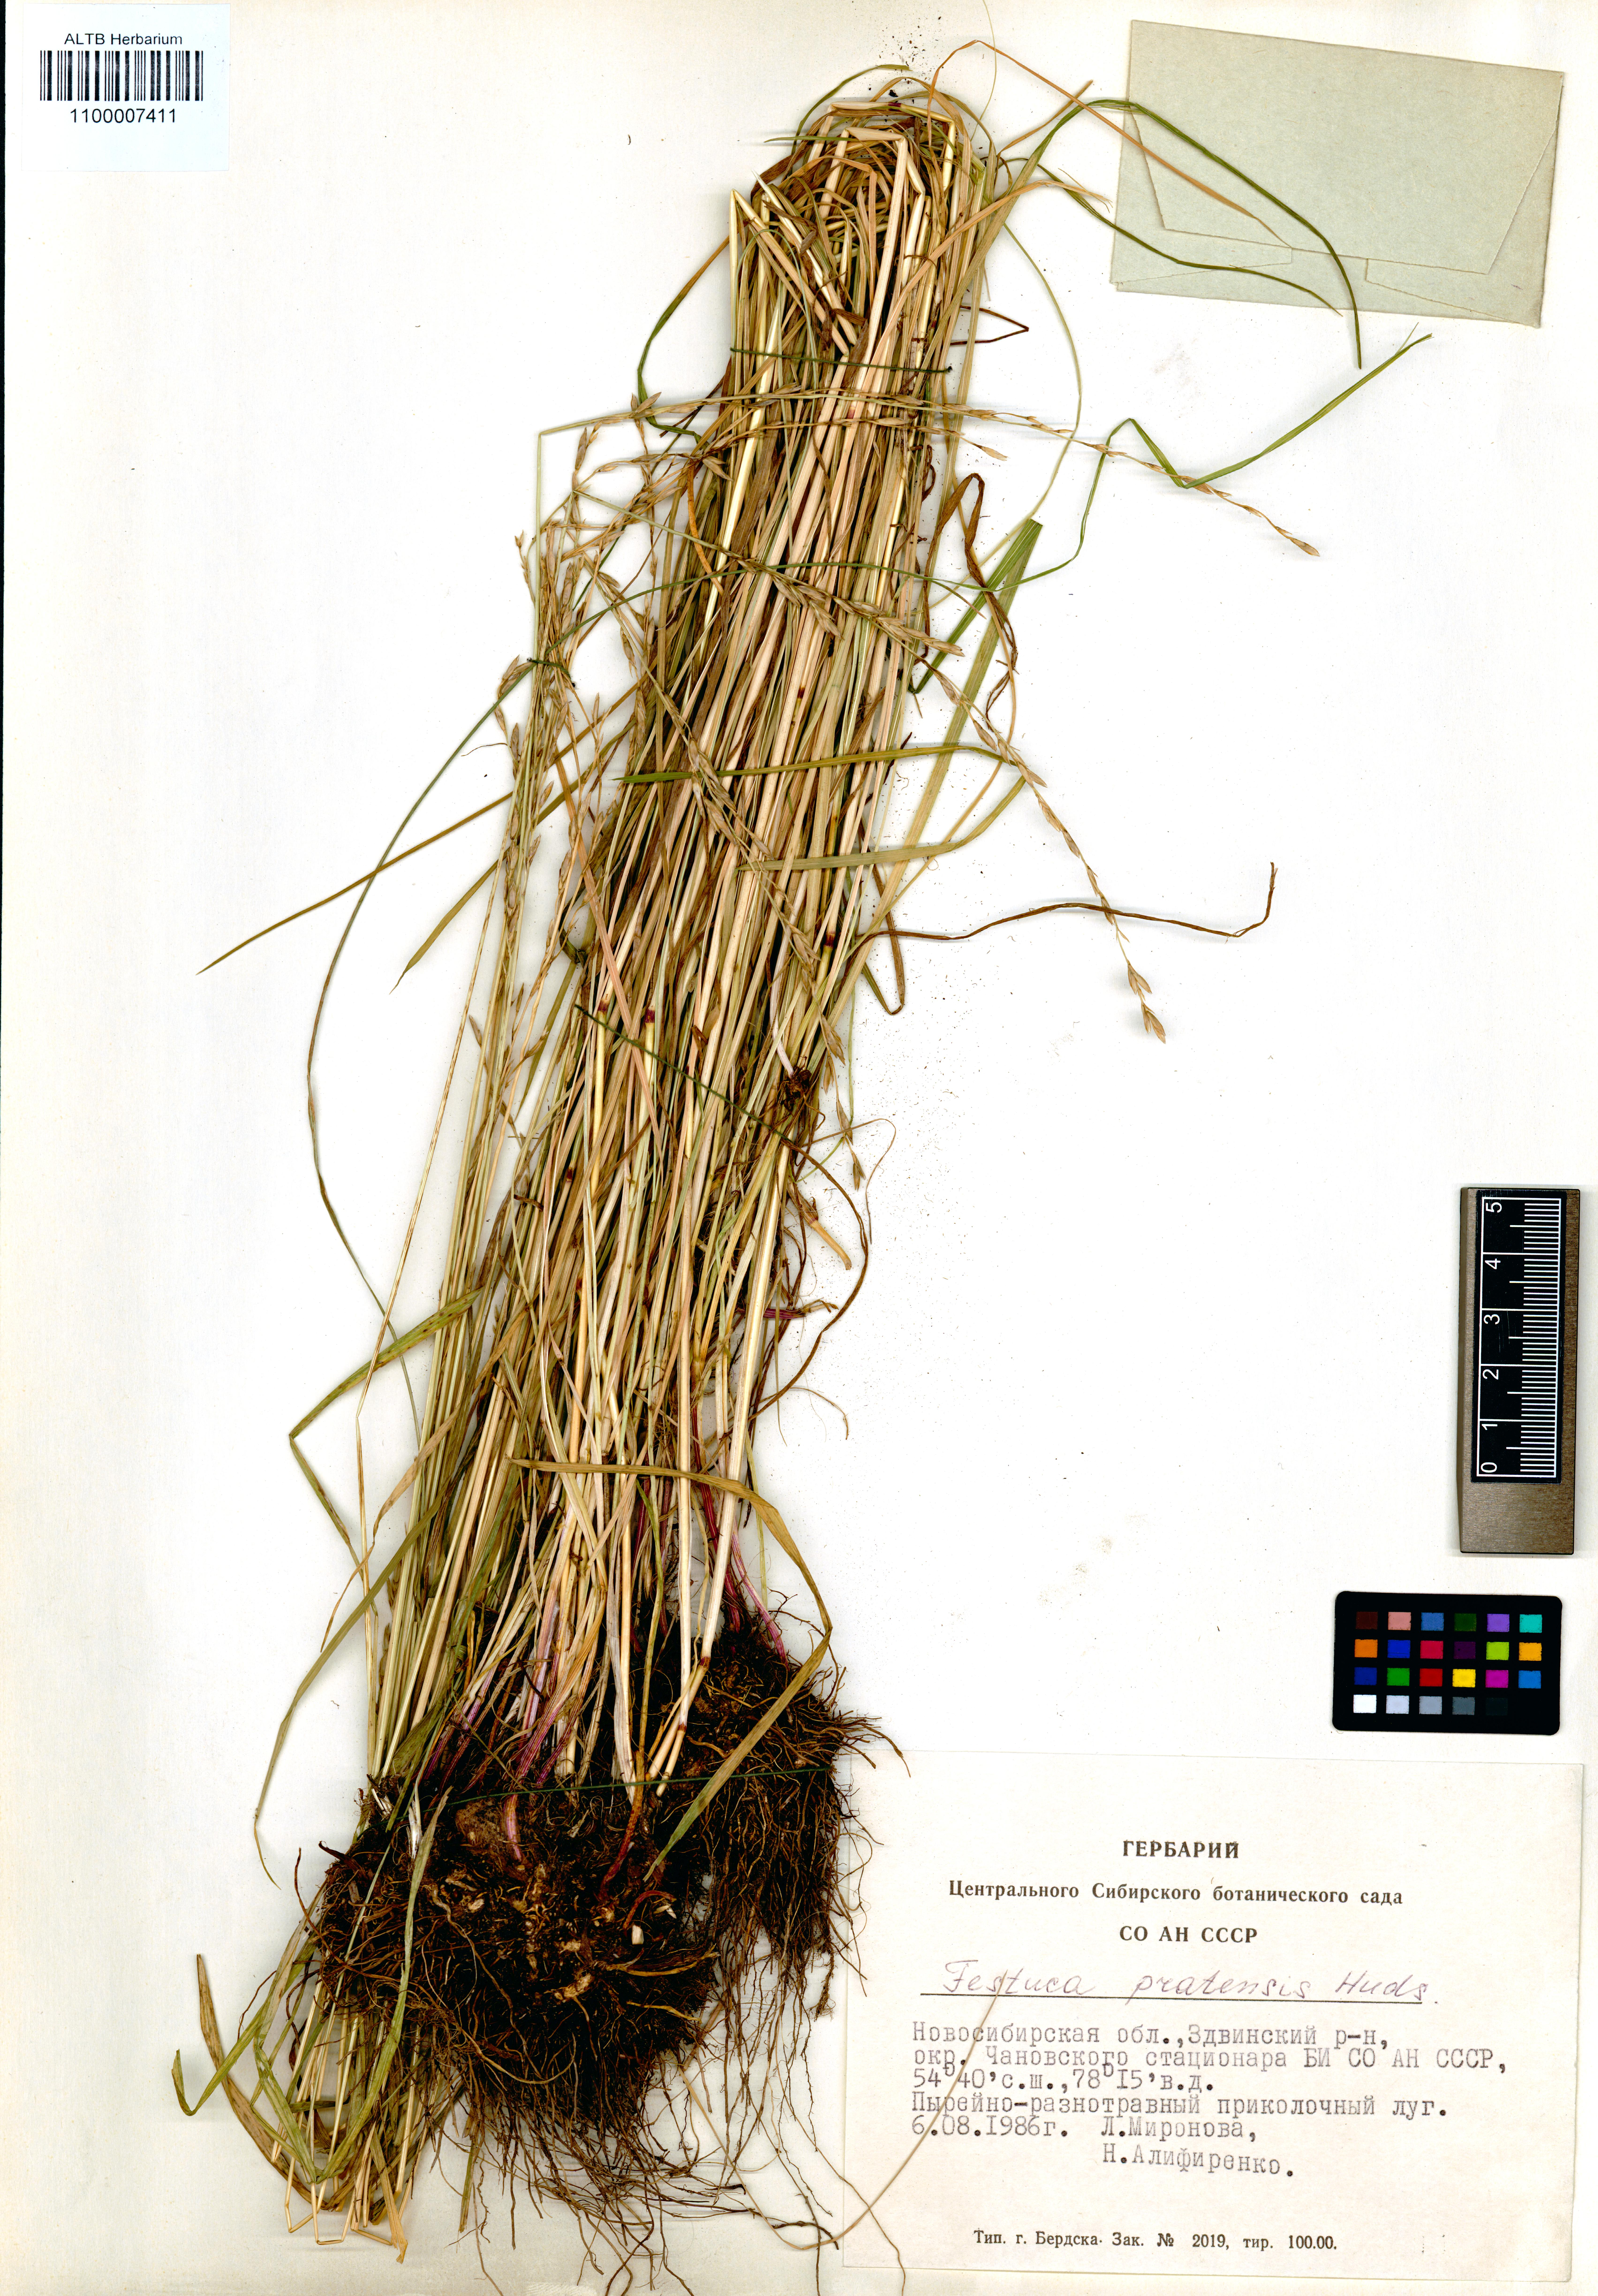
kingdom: Plantae
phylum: Tracheophyta
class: Liliopsida
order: Poales
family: Poaceae
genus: Lolium
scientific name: Lolium pratense
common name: Dover grass
